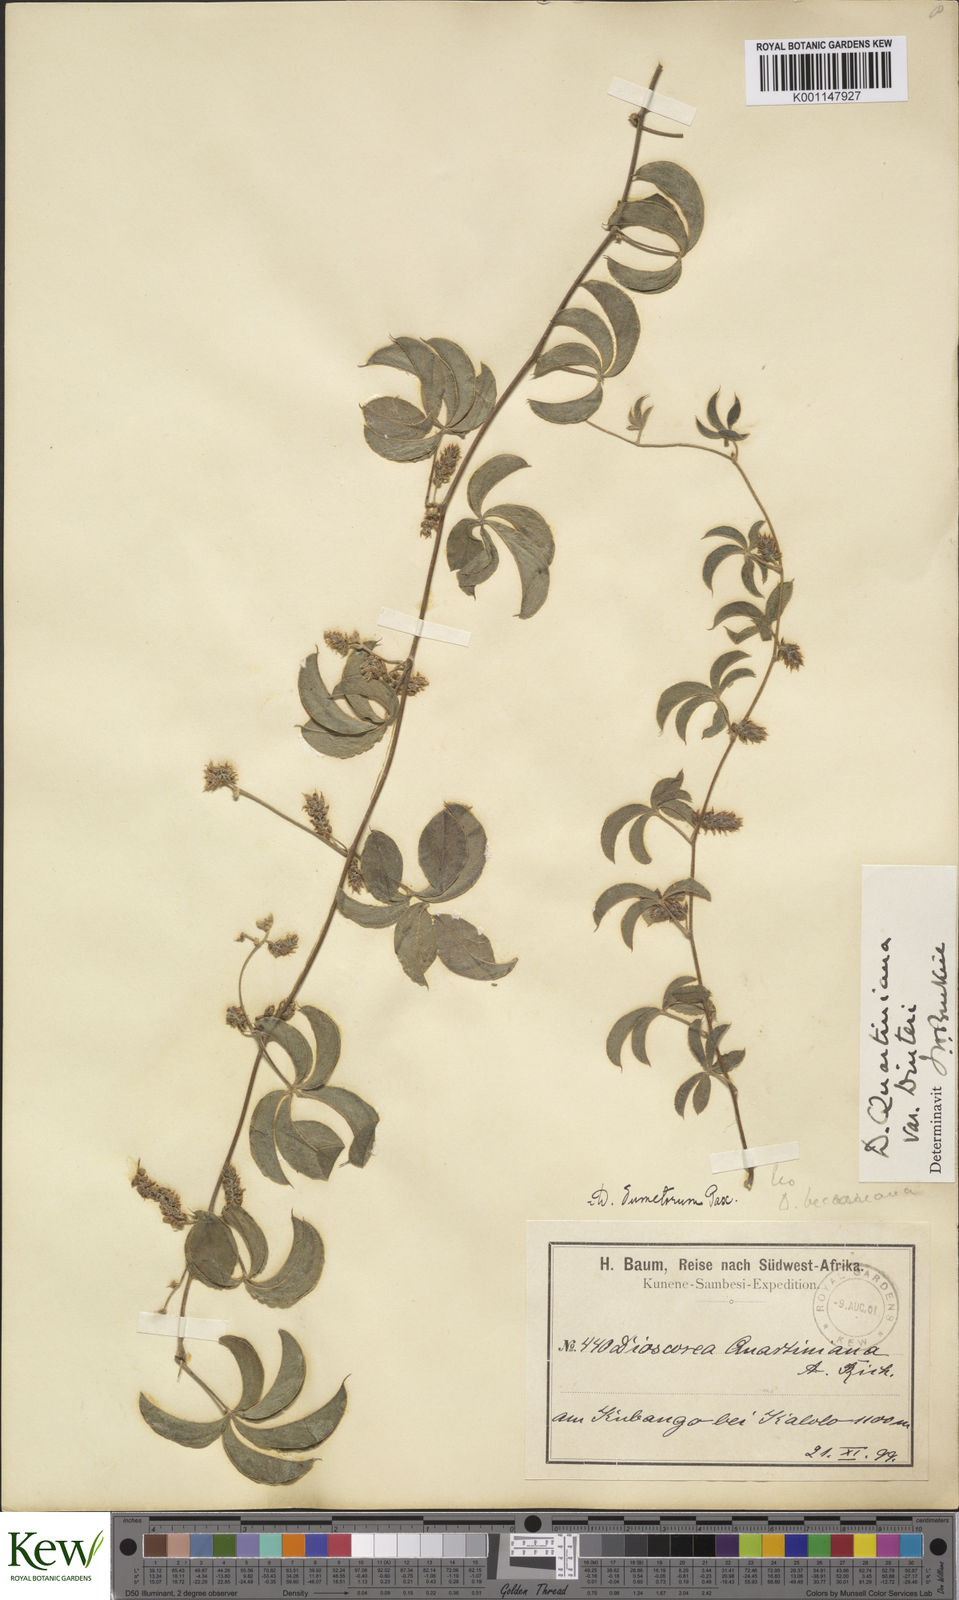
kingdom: Plantae
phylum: Tracheophyta
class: Liliopsida
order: Dioscoreales
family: Dioscoreaceae
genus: Dioscorea
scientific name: Dioscorea quartiniana
